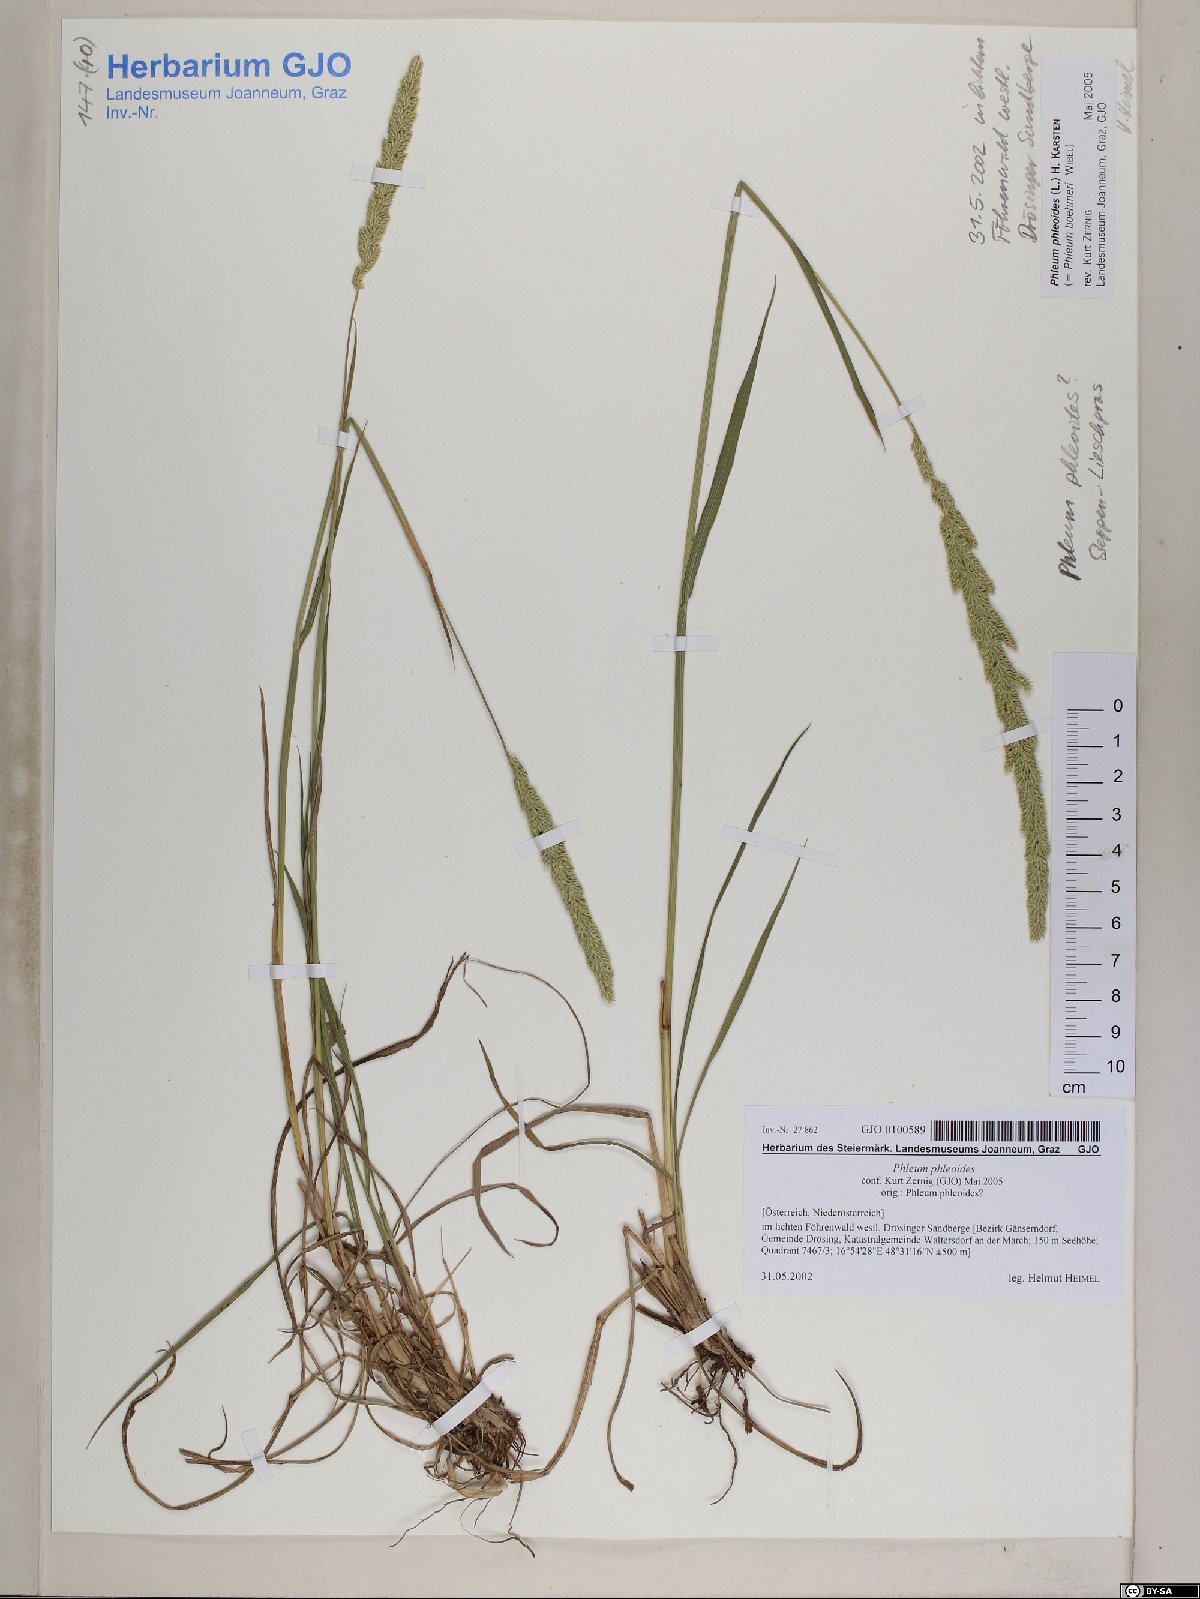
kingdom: Plantae
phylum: Tracheophyta
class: Liliopsida
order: Poales
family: Poaceae
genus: Phleum
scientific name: Phleum phleoides
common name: Purple-stem cat's-tail
